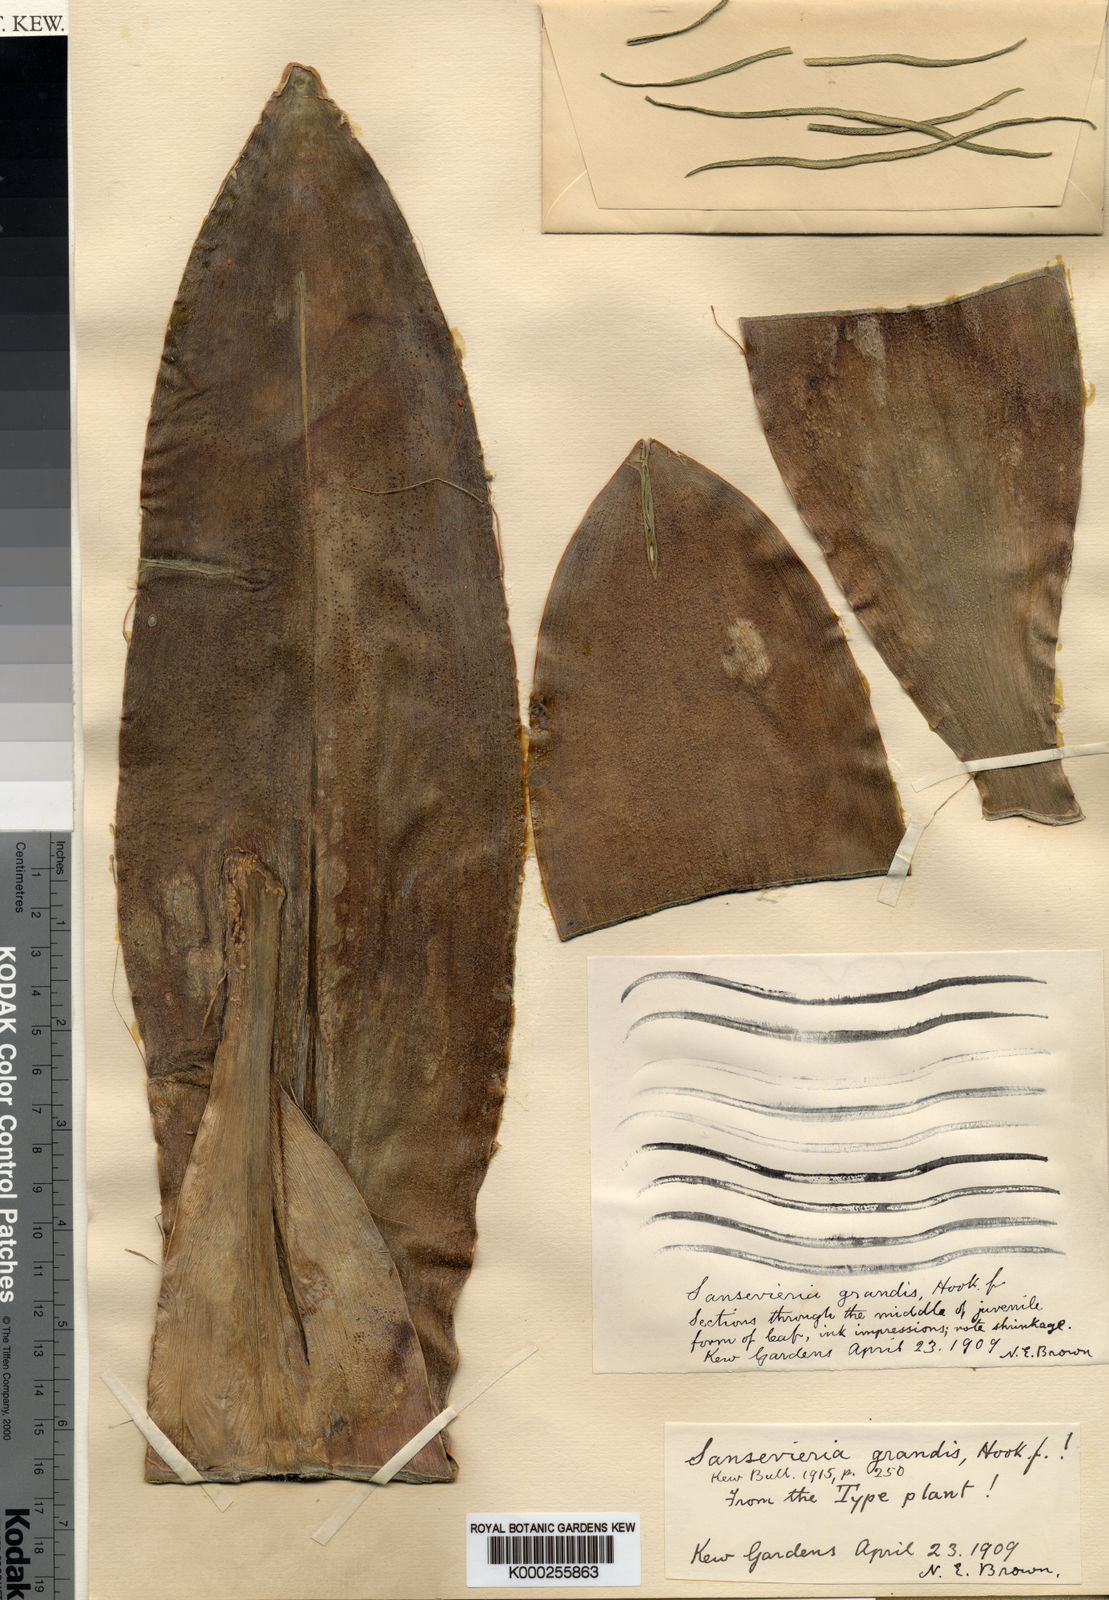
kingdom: Plantae
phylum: Tracheophyta
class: Liliopsida
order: Asparagales
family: Asparagaceae
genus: Dracaena
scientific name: Dracaena hyacinthoides
